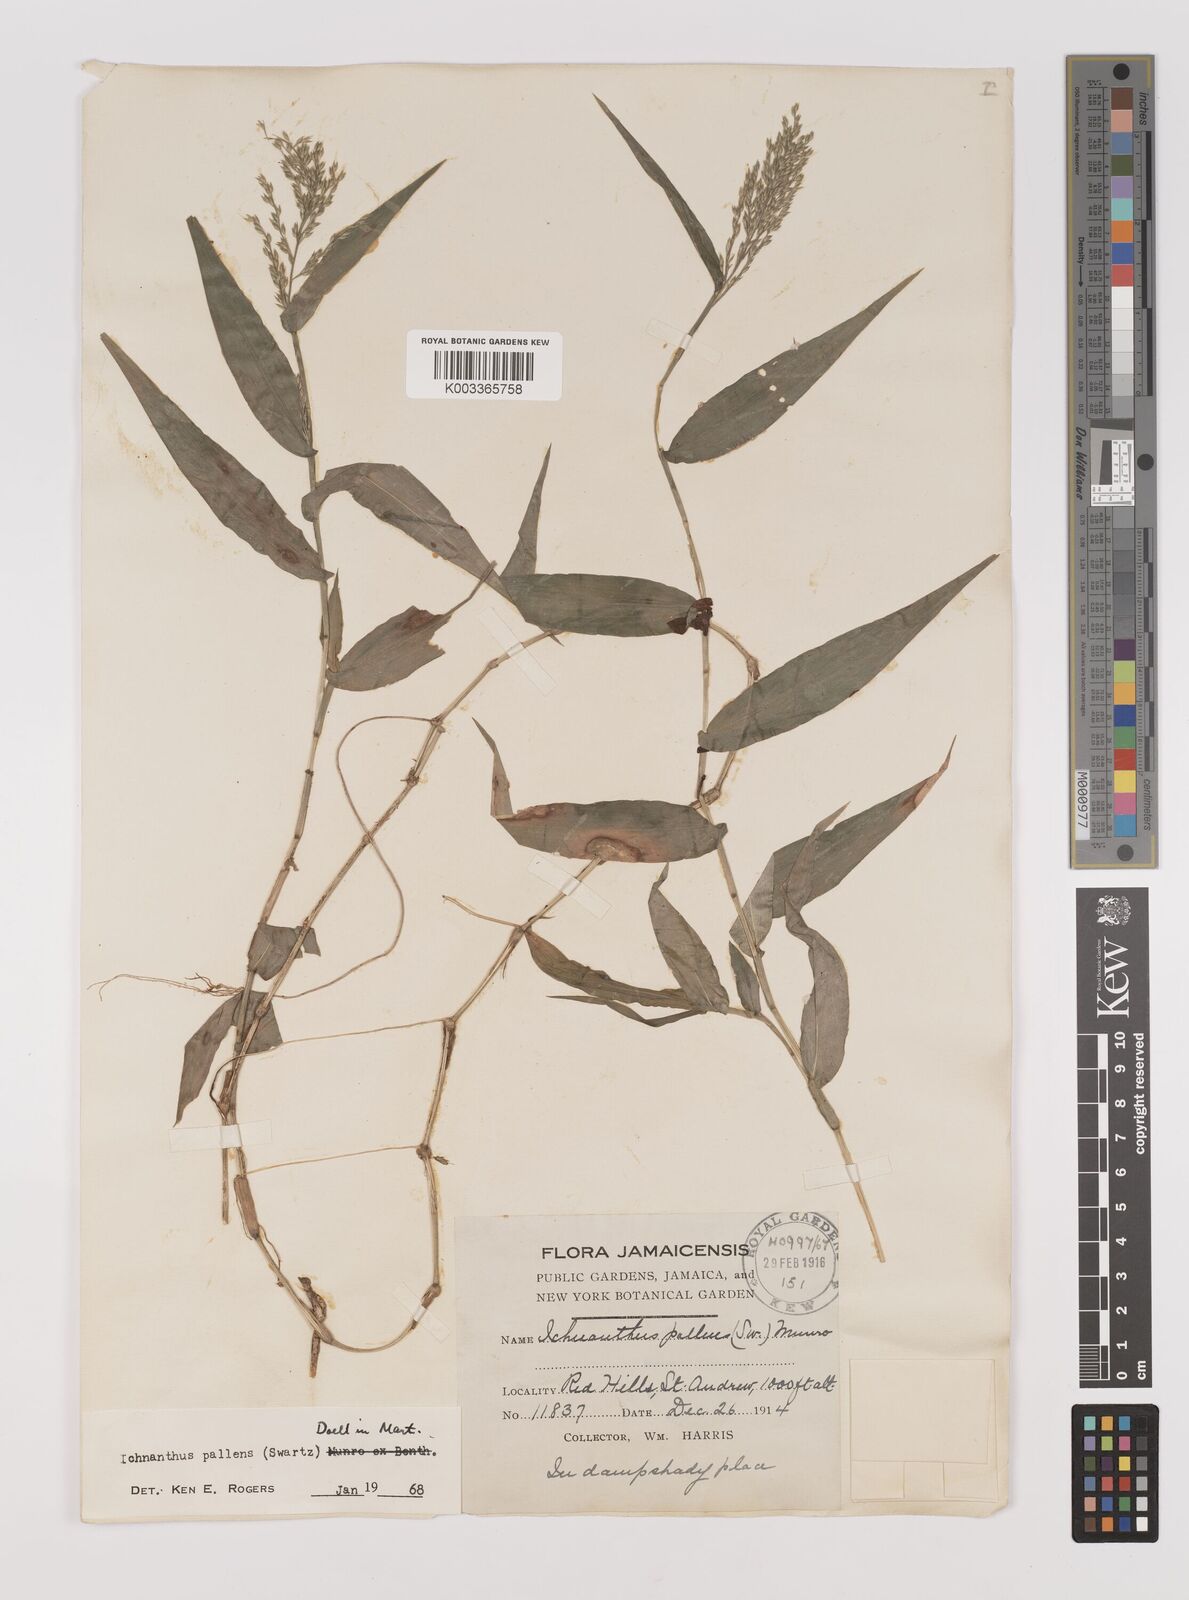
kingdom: Plantae
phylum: Tracheophyta
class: Liliopsida
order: Poales
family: Poaceae
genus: Ichnanthus
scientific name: Ichnanthus pallens
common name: Water grass
